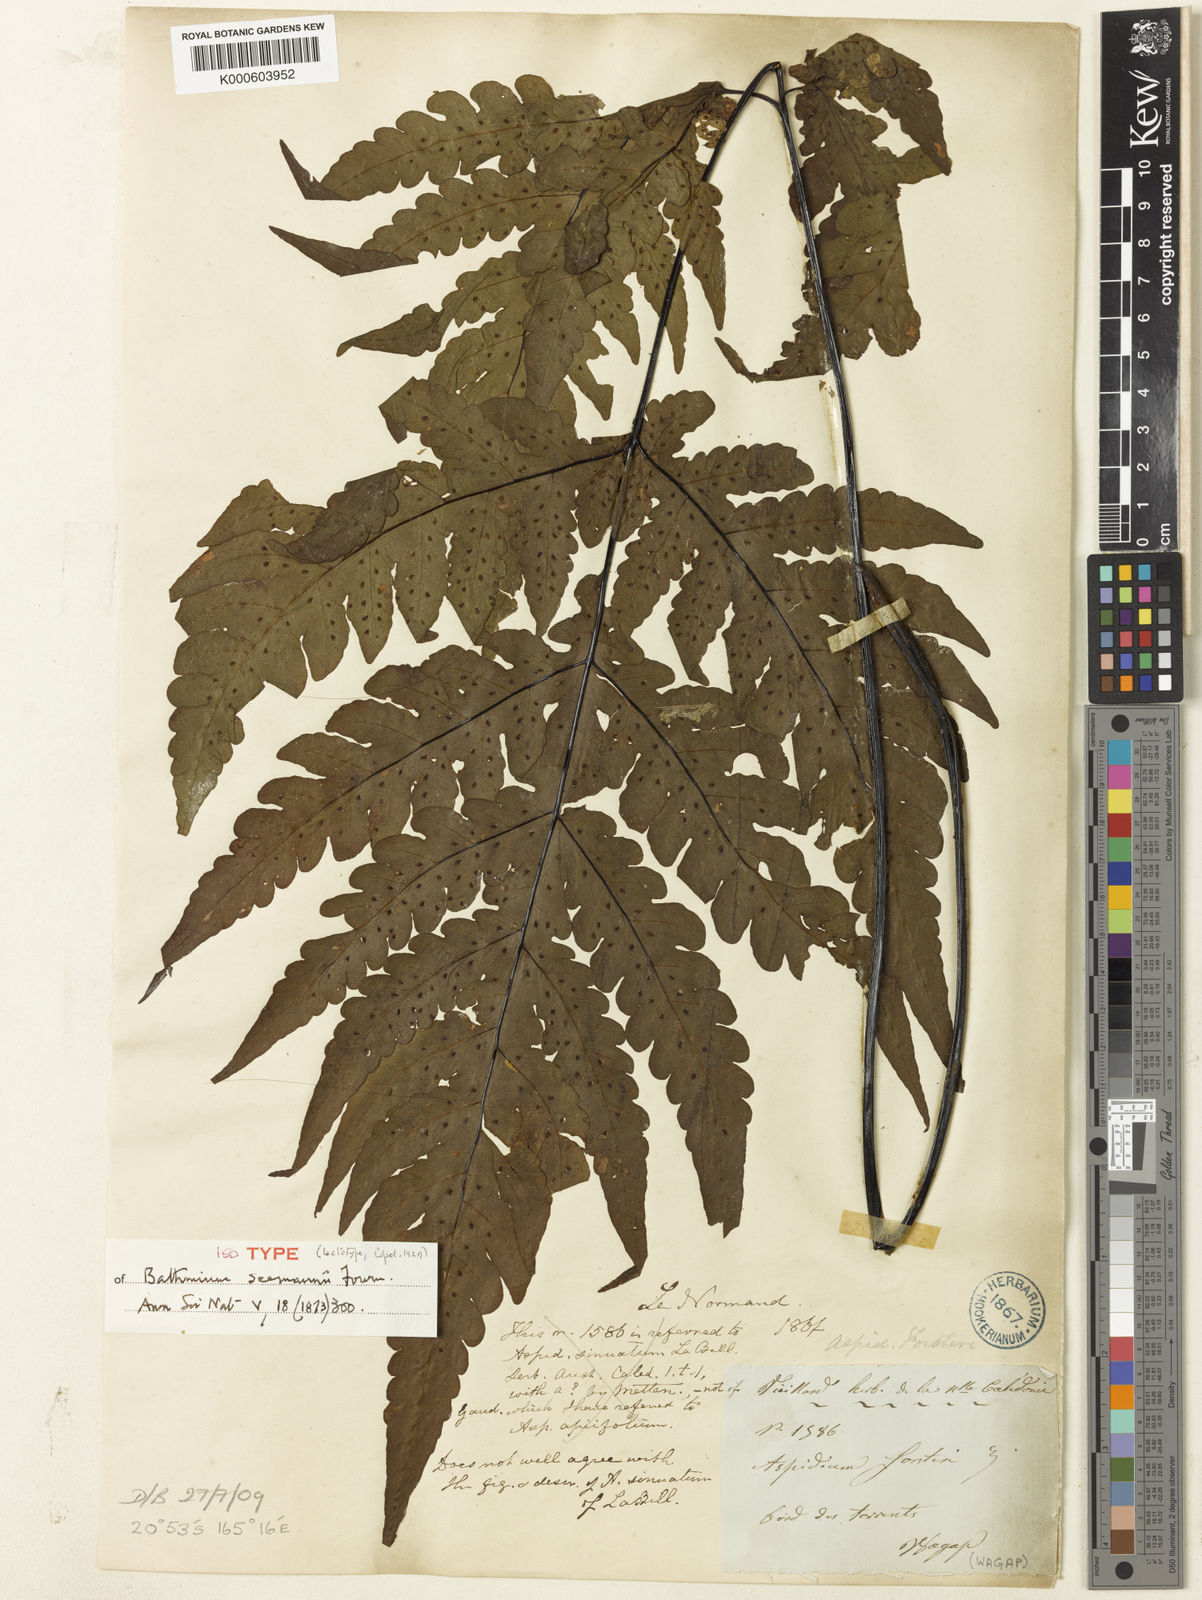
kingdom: Plantae
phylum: Tracheophyta
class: Polypodiopsida
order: Polypodiales
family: Tectariaceae
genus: Tectaria
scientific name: Tectaria seemannii
